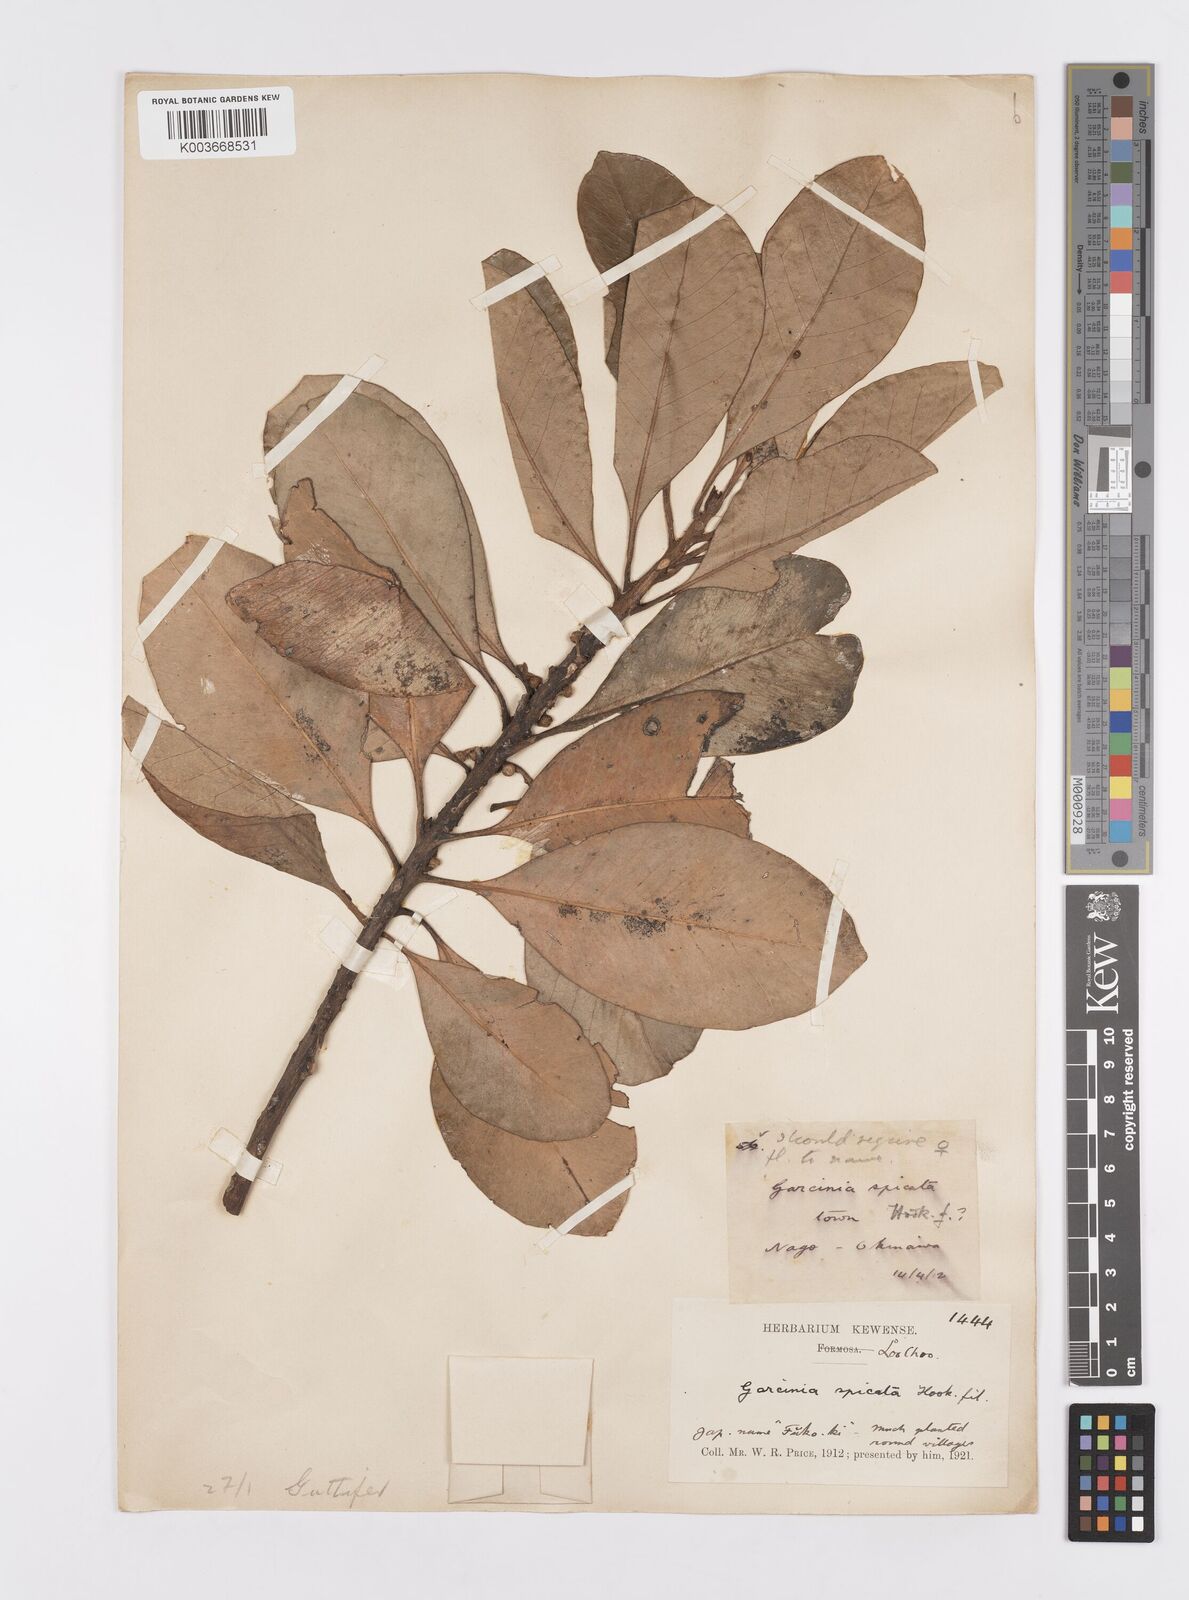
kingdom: Plantae
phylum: Tracheophyta
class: Magnoliopsida
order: Malpighiales
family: Clusiaceae
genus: Garcinia
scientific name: Garcinia spicata
